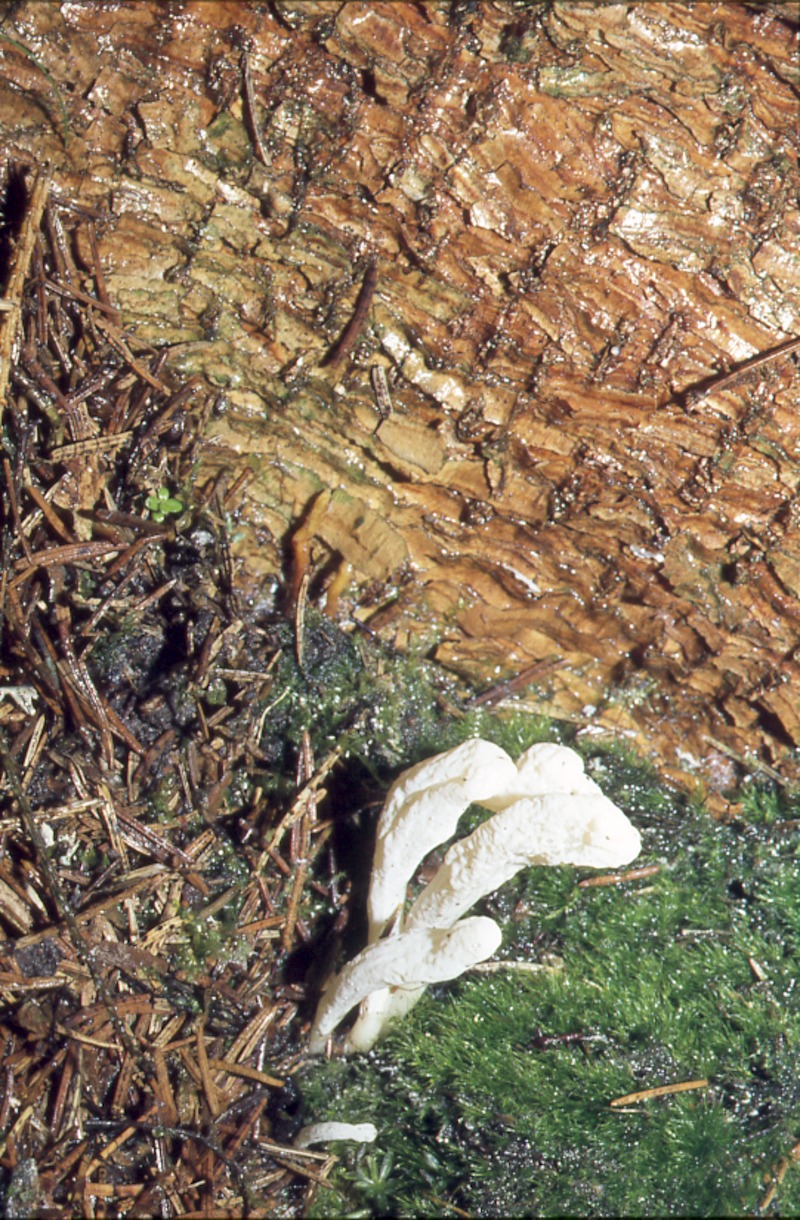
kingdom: Fungi
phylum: Basidiomycota
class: Agaricomycetes
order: Cantharellales
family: Hydnaceae
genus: Clavulina
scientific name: Clavulina rugosa
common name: Wrinkled club
